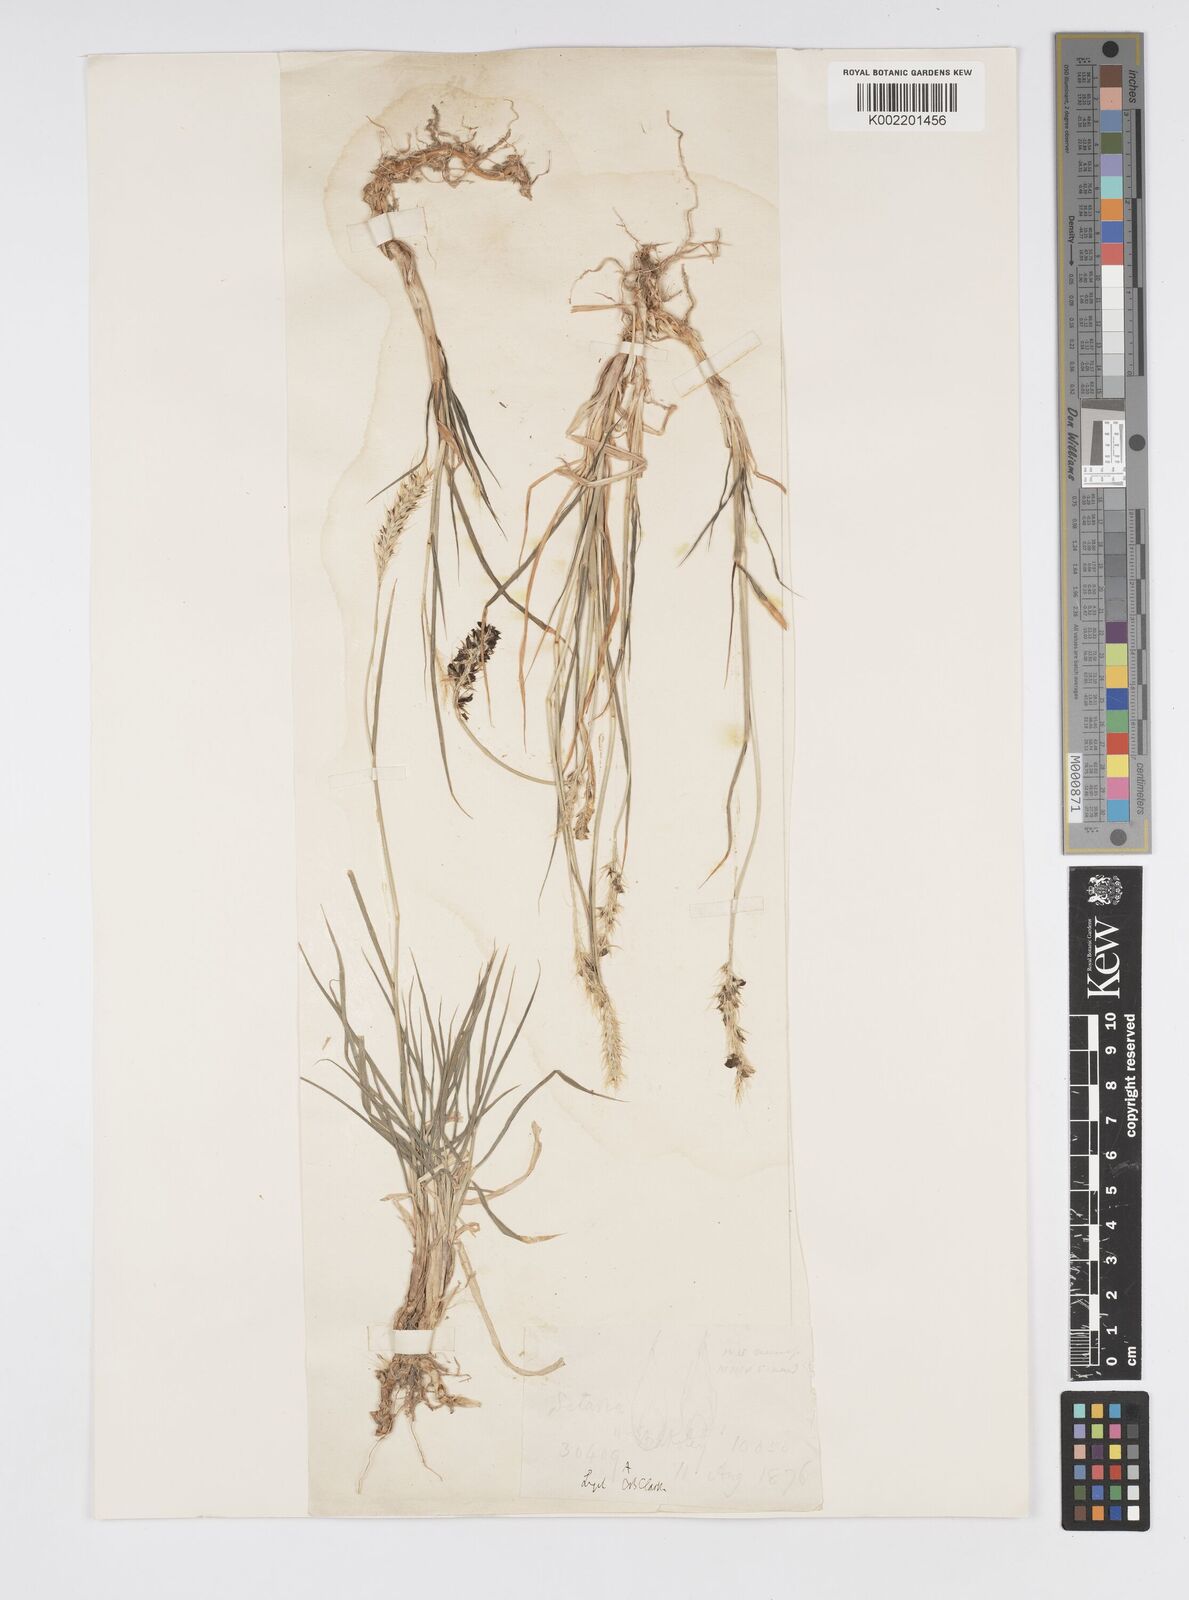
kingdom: Plantae
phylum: Tracheophyta
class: Liliopsida
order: Poales
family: Poaceae
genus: Cenchrus
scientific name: Cenchrus flaccidus
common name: Flaccid grass
